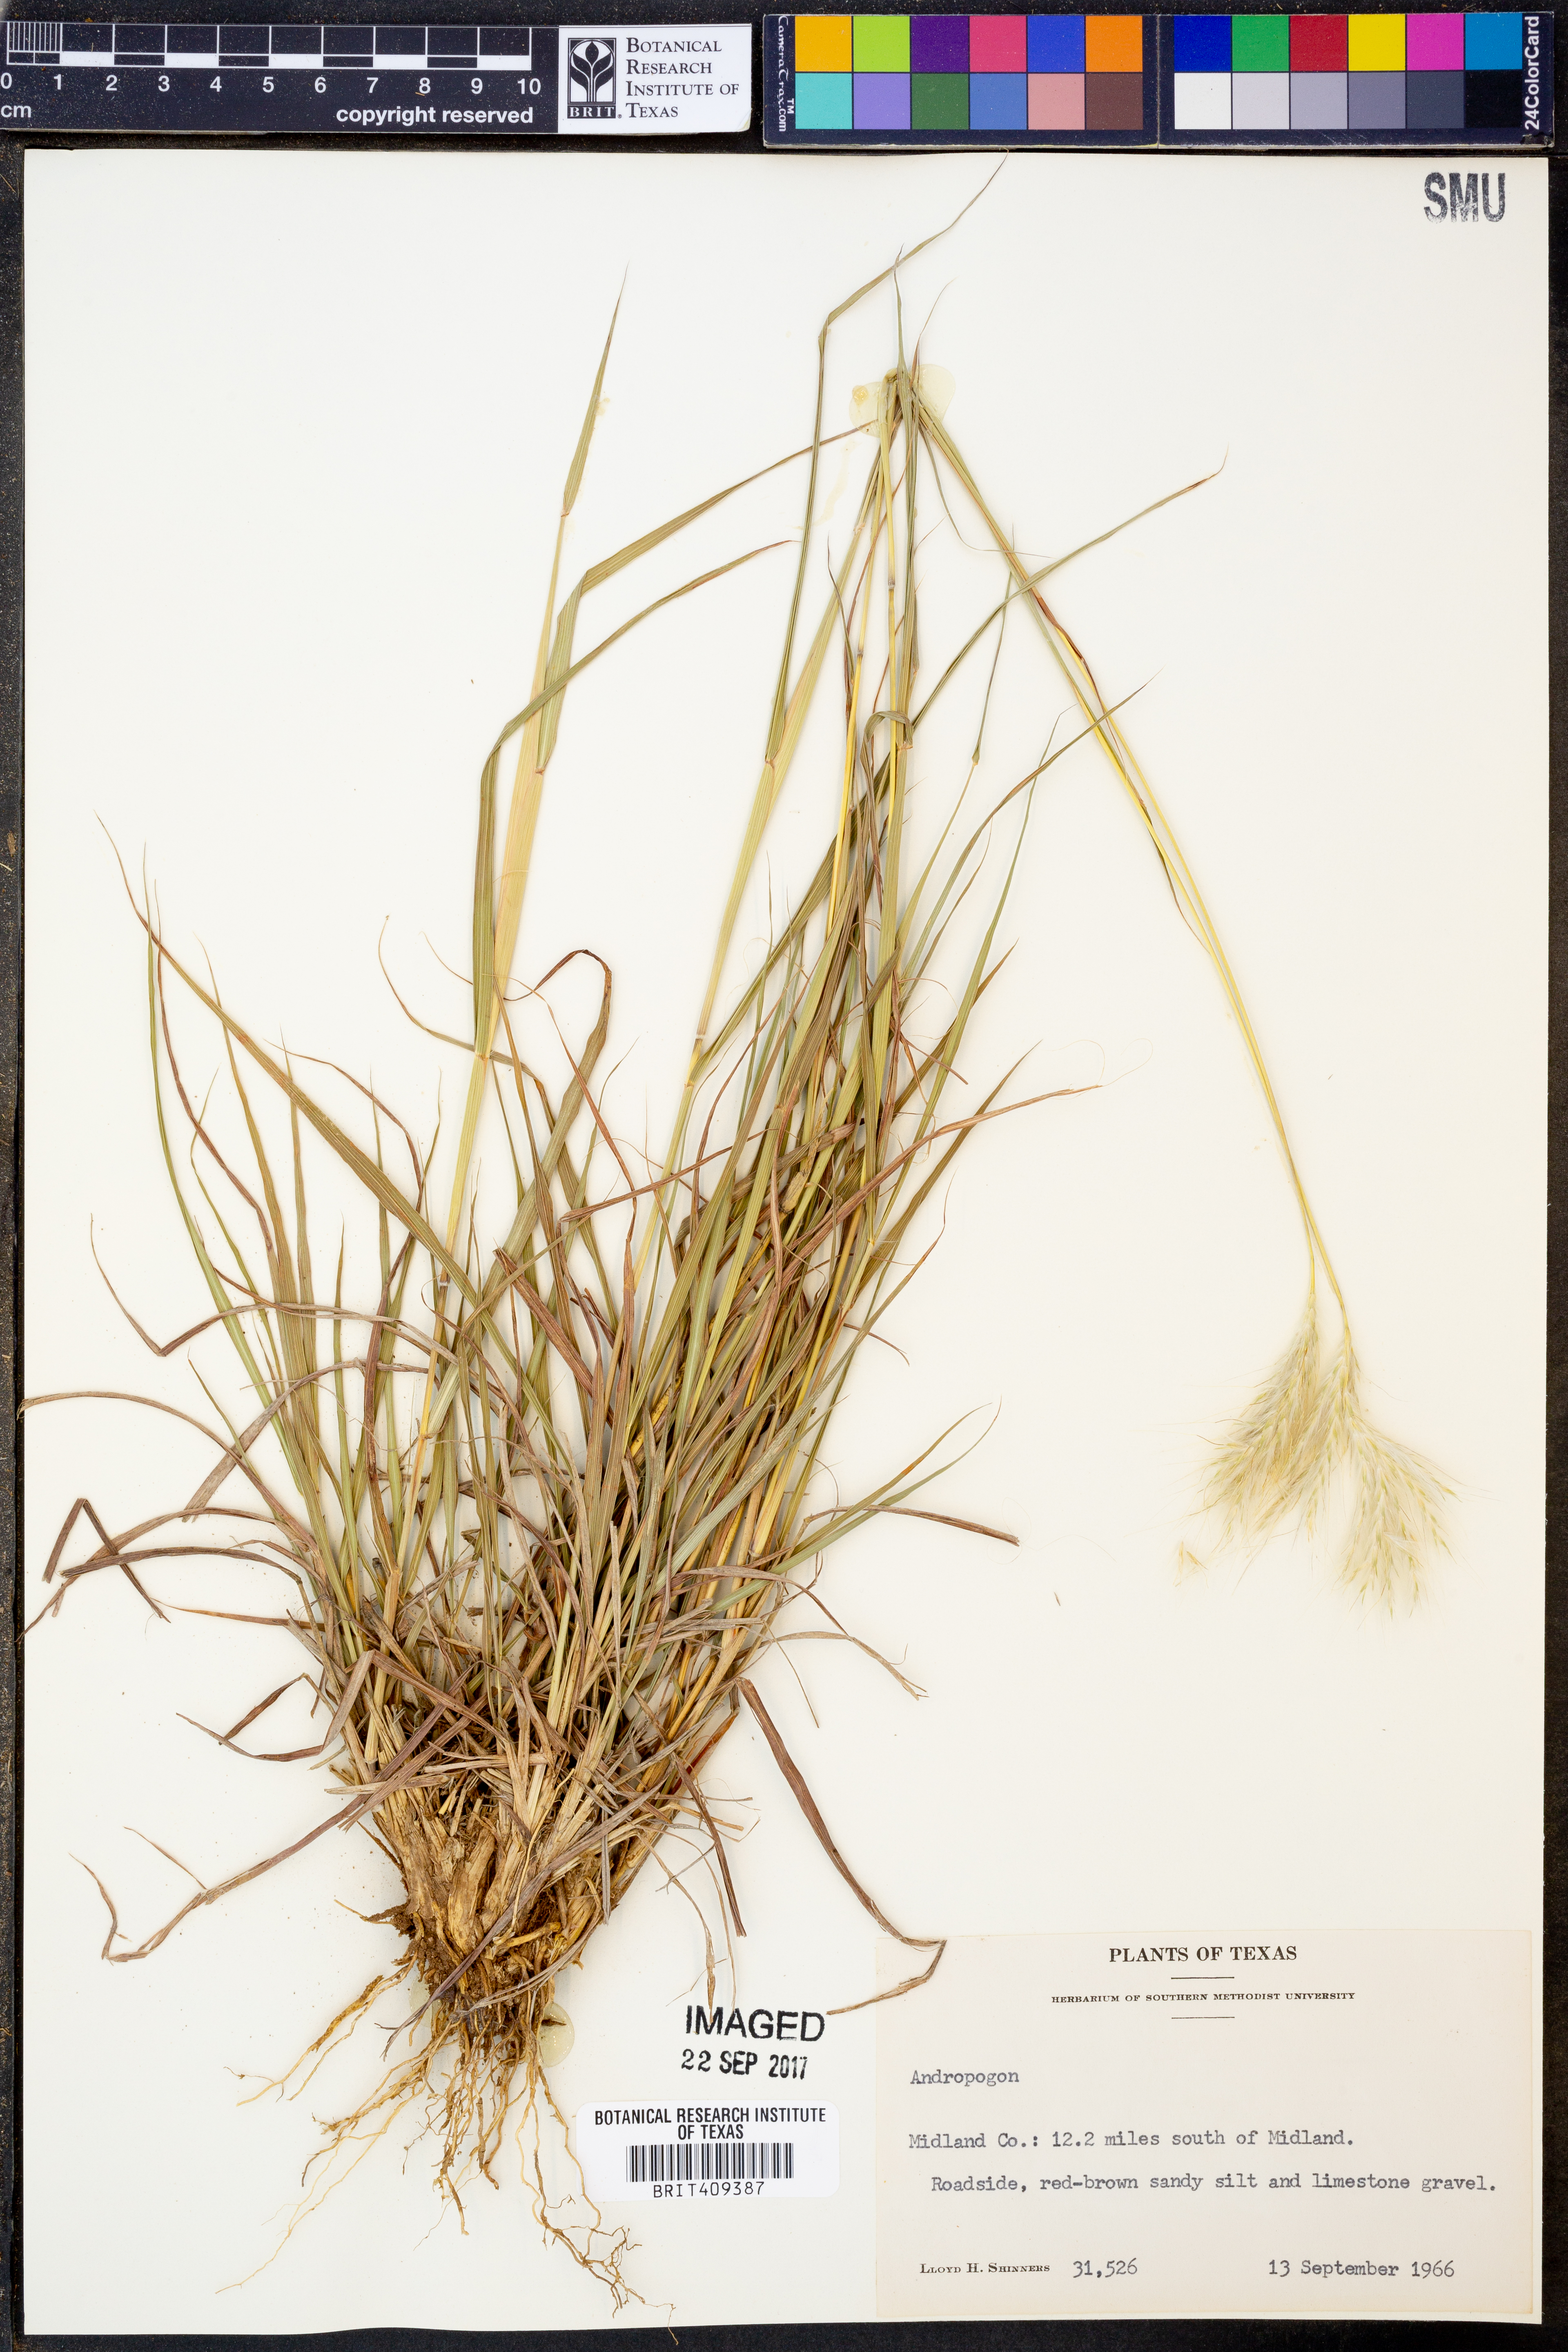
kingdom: Plantae
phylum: Tracheophyta
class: Liliopsida
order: Poales
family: Poaceae
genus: Andropogon
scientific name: Andropogon
